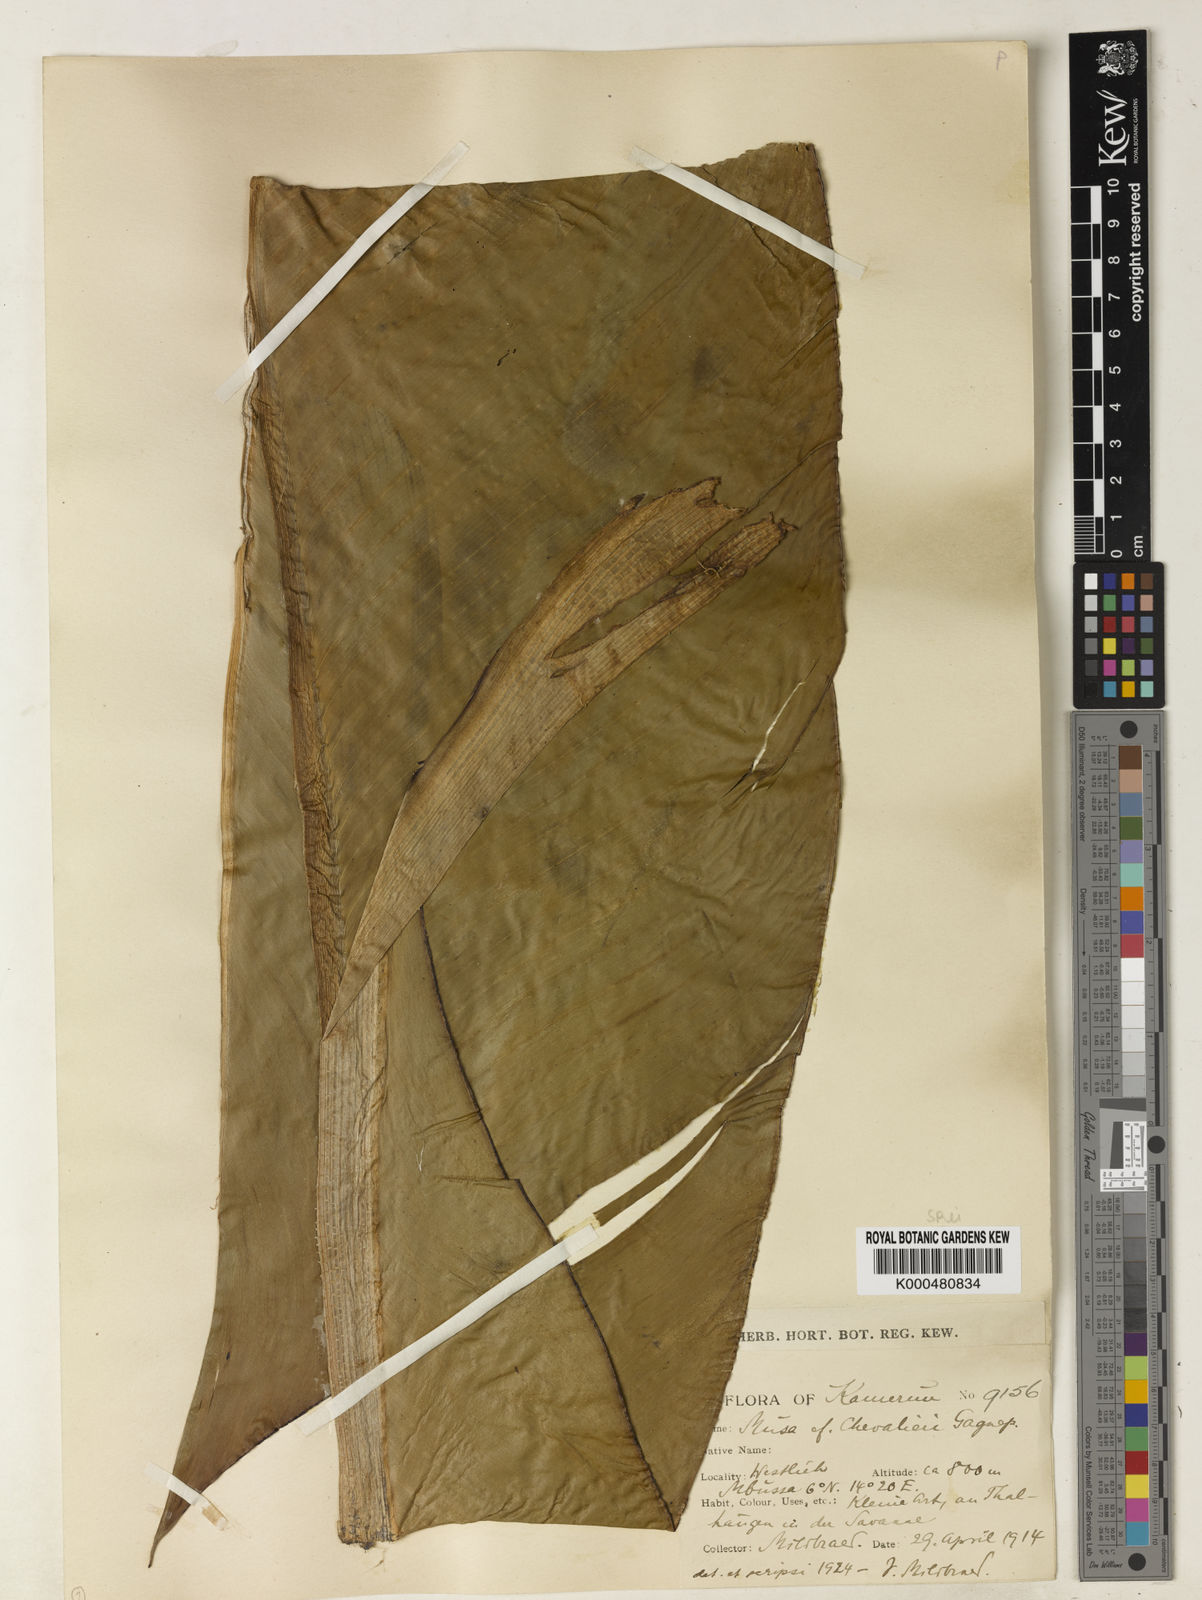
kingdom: Plantae
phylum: Tracheophyta
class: Liliopsida
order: Zingiberales
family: Musaceae
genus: Ensete
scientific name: Ensete livingstonianum
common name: Livingston's banana
